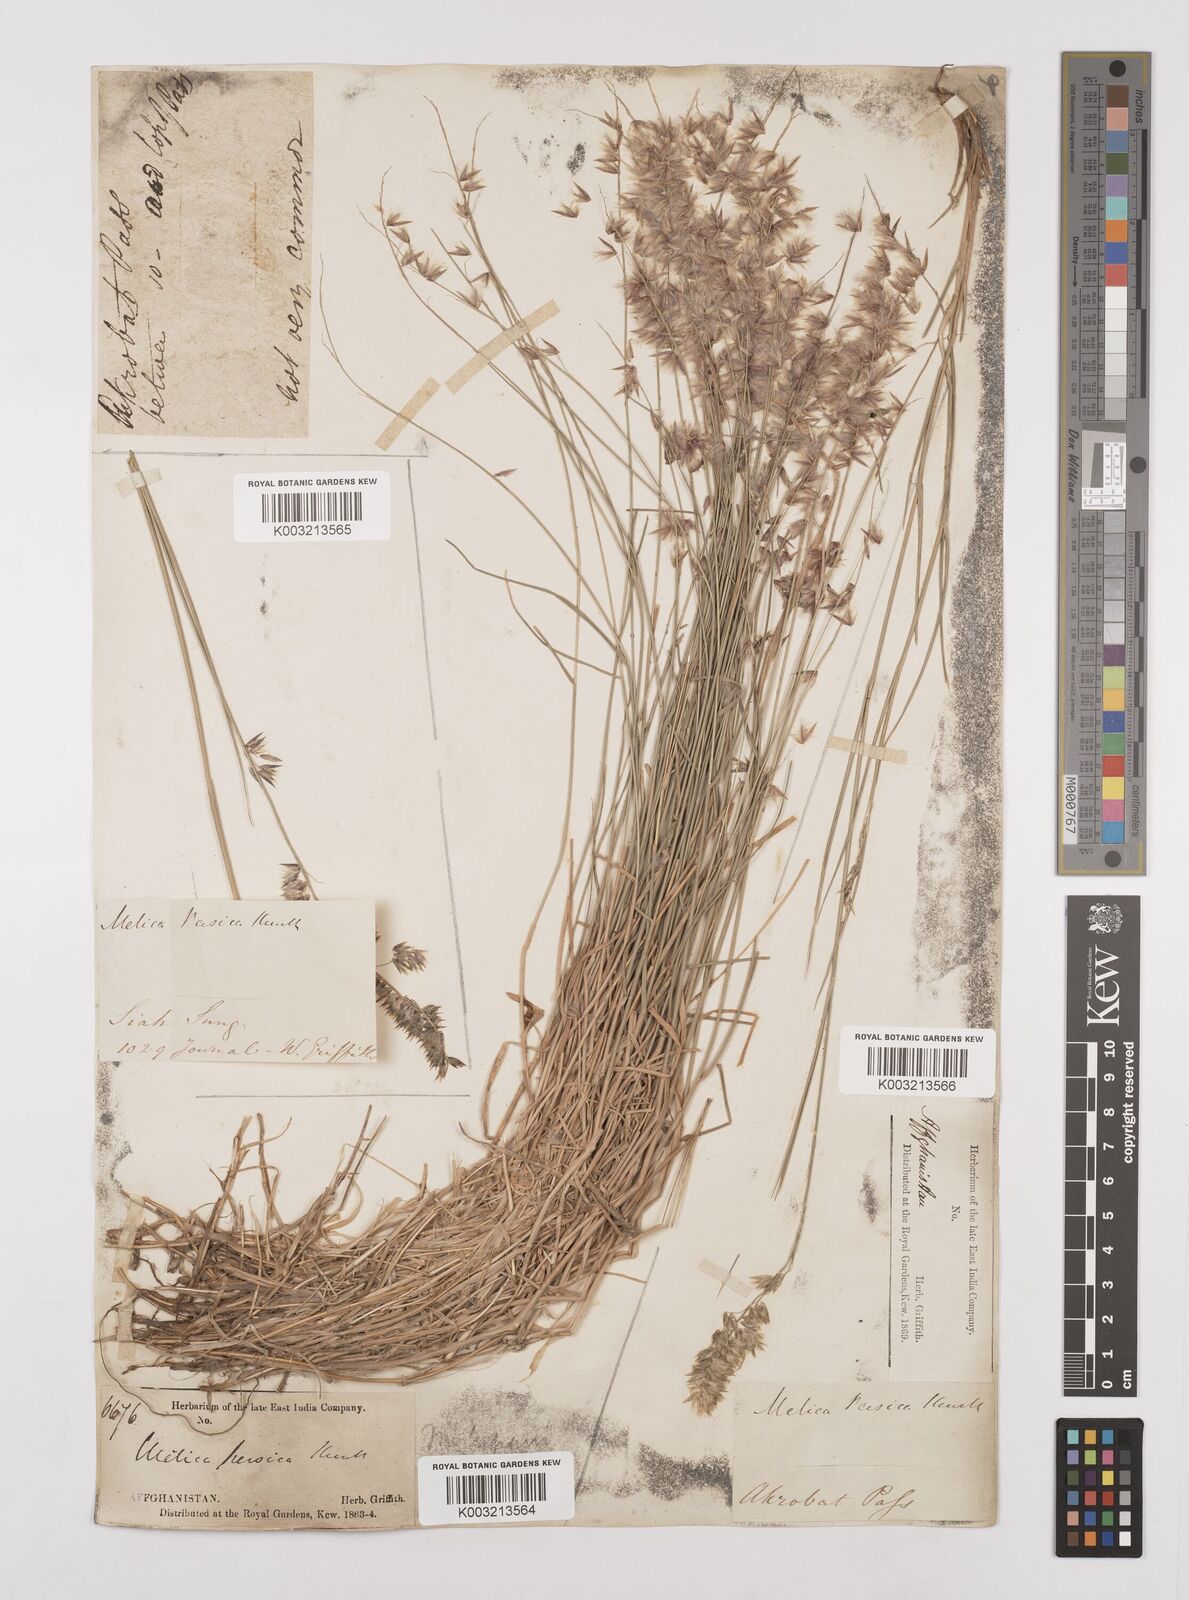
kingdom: Plantae
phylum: Tracheophyta
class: Liliopsida
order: Poales
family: Poaceae
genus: Melica
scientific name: Melica persica
